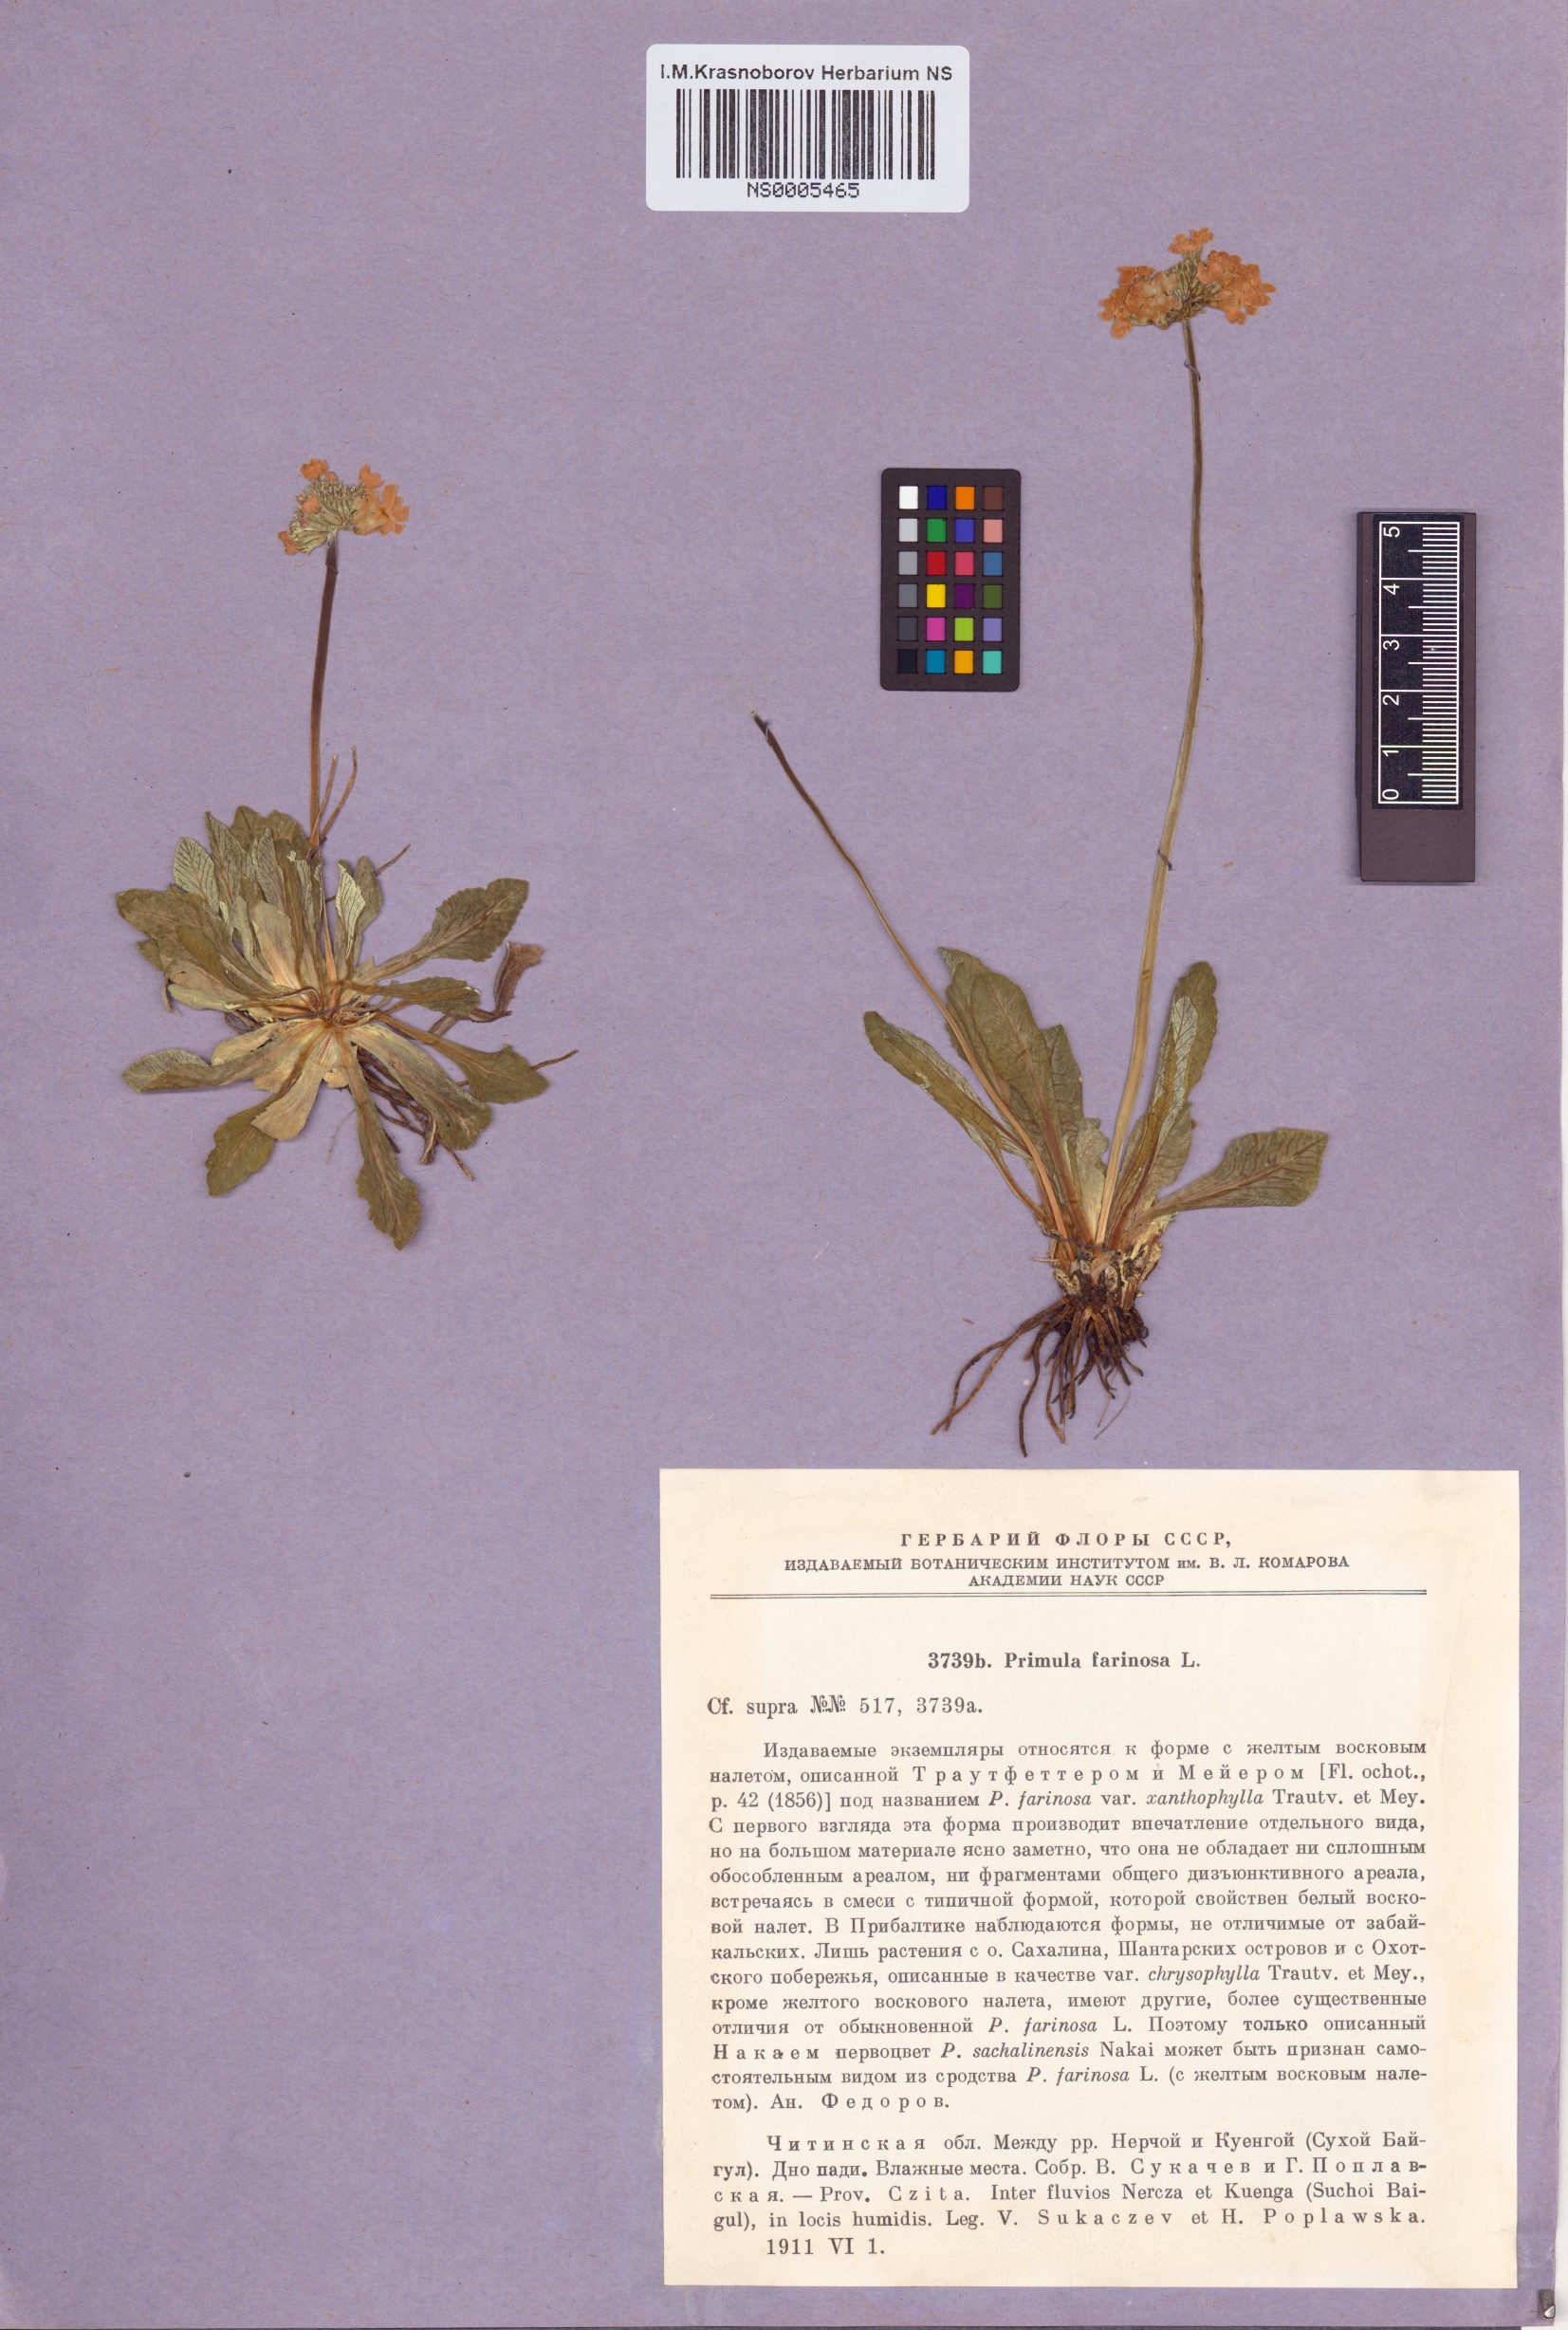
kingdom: Plantae
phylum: Tracheophyta
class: Magnoliopsida
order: Ericales
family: Primulaceae
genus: Primula
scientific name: Primula farinosa
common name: Bird's-eye primrose
